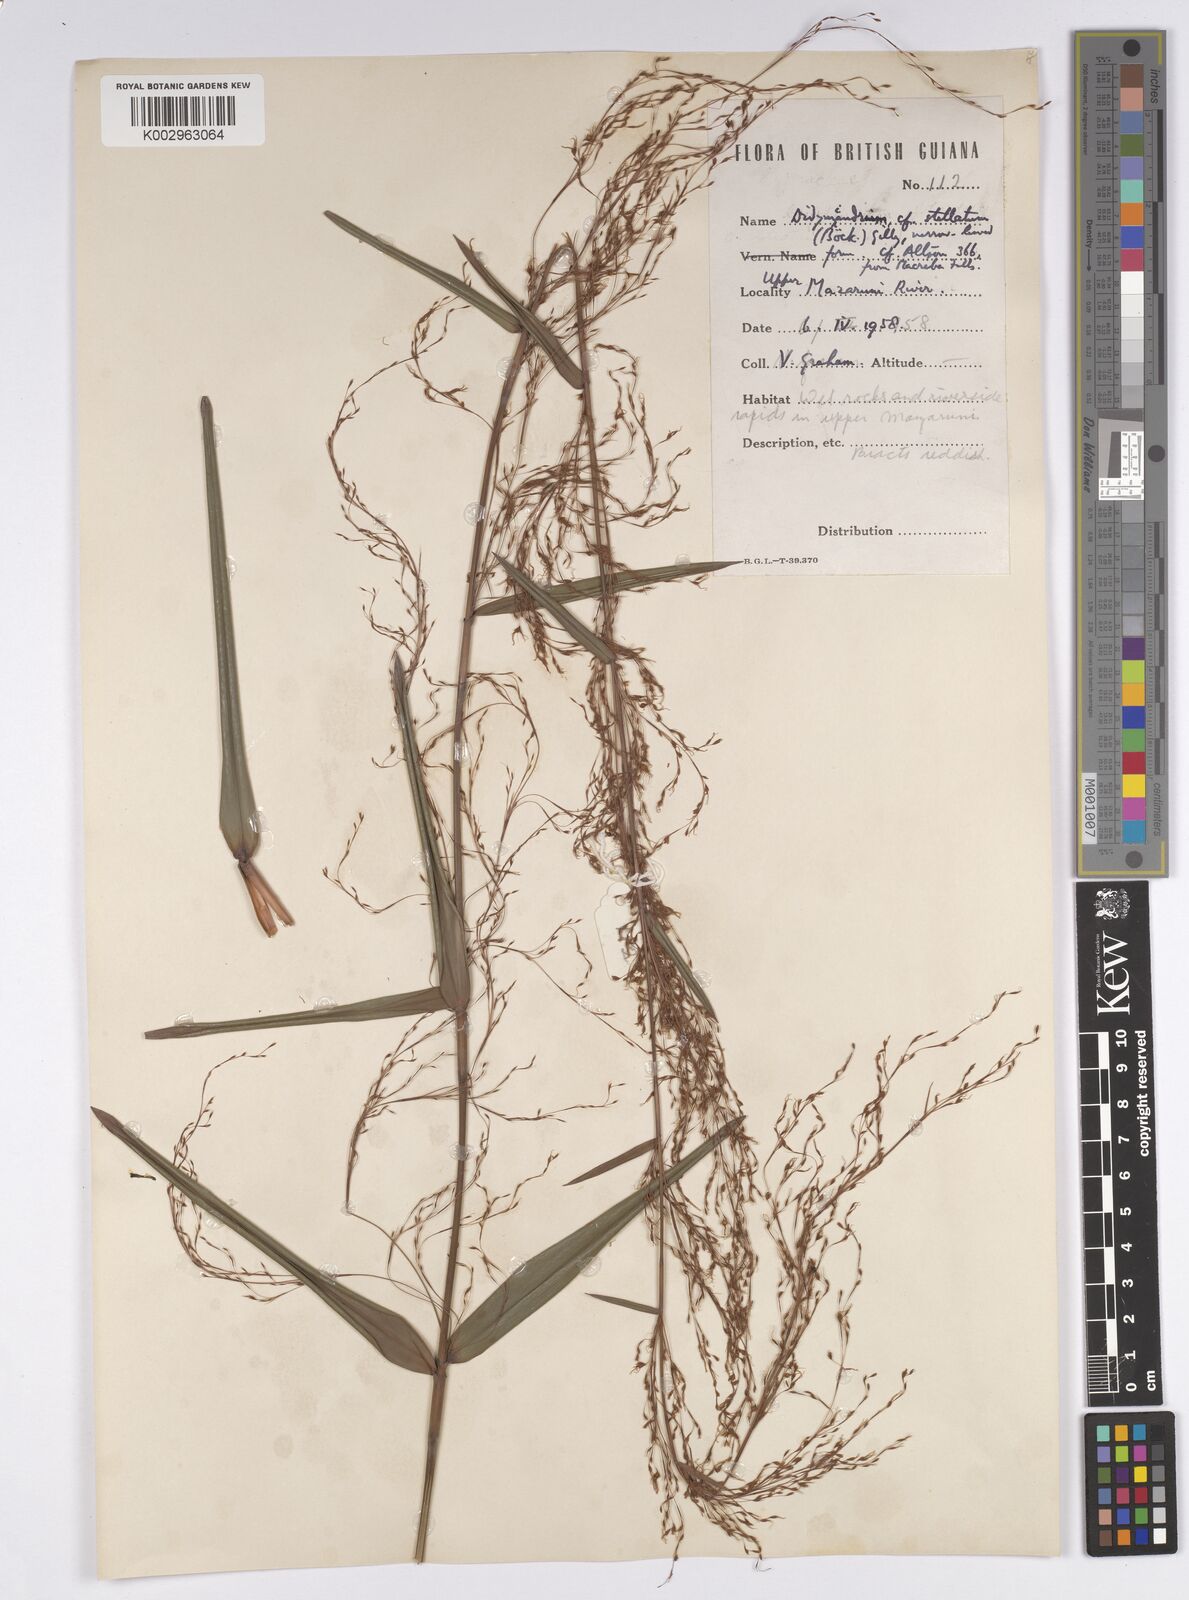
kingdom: Plantae
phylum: Tracheophyta
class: Liliopsida
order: Poales
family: Cyperaceae
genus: Didymiandrum
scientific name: Didymiandrum stellatum
